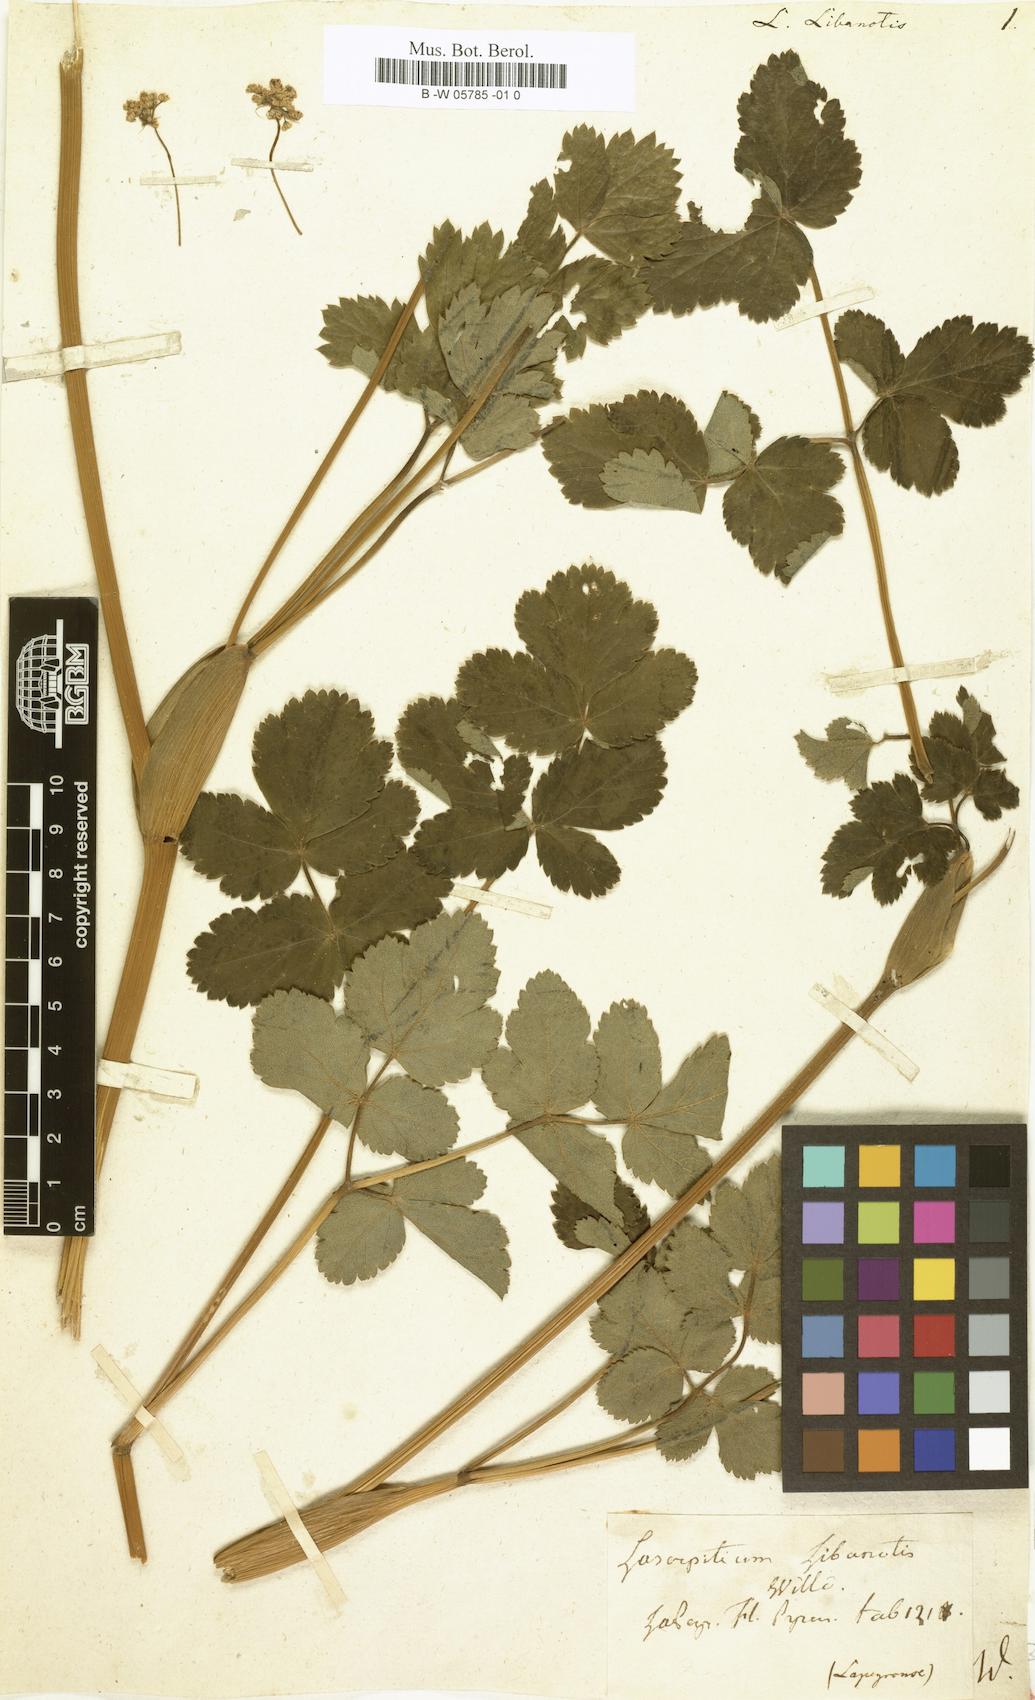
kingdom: Plantae
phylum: Tracheophyta
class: Magnoliopsida
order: Apiales
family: Apiaceae
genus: Laserpitium
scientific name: Laserpitium latifolium
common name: Broadleaf sermountain
